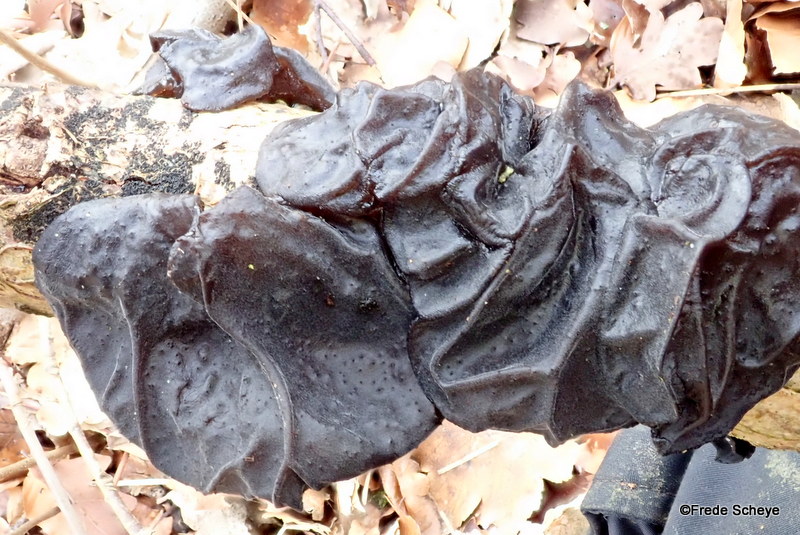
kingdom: Fungi
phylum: Basidiomycota
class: Agaricomycetes
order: Auriculariales
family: Auriculariaceae
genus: Exidia
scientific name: Exidia glandulosa
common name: ege-bævretop
